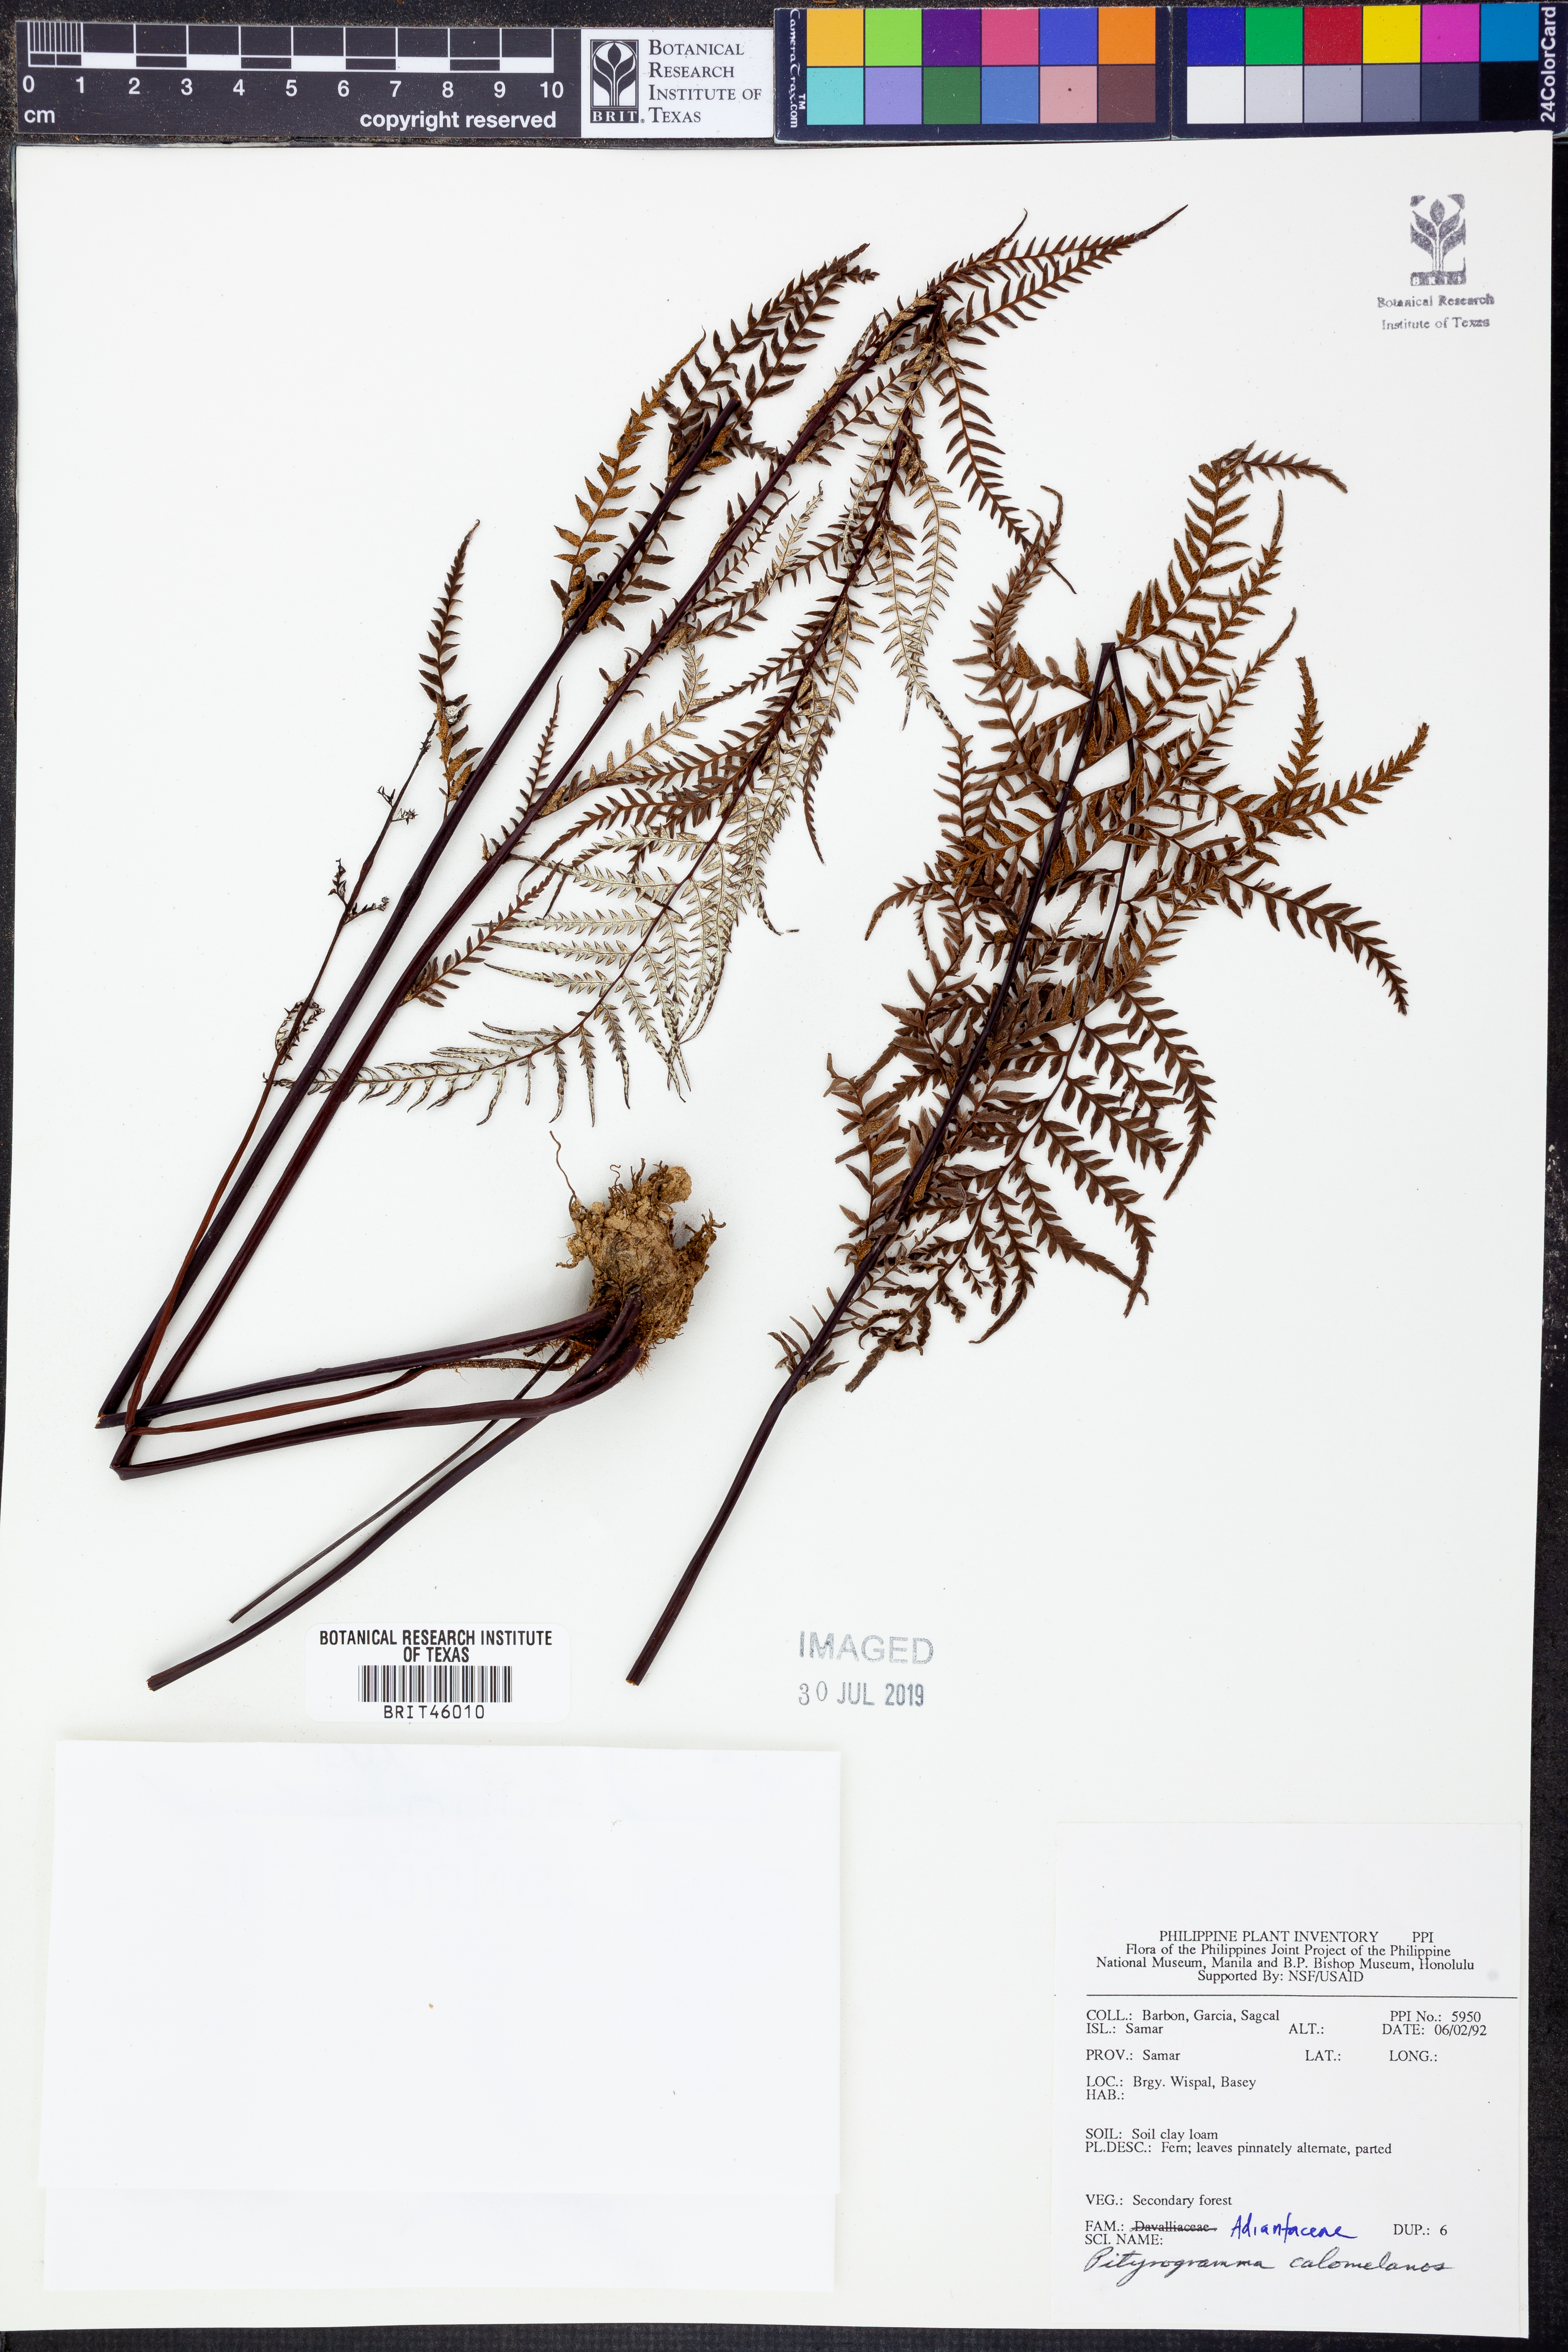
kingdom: Plantae
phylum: Tracheophyta
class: Polypodiopsida
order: Polypodiales
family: Pteridaceae
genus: Pityrogramma
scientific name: Pityrogramma calomelanos
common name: Dixie silverback fern
